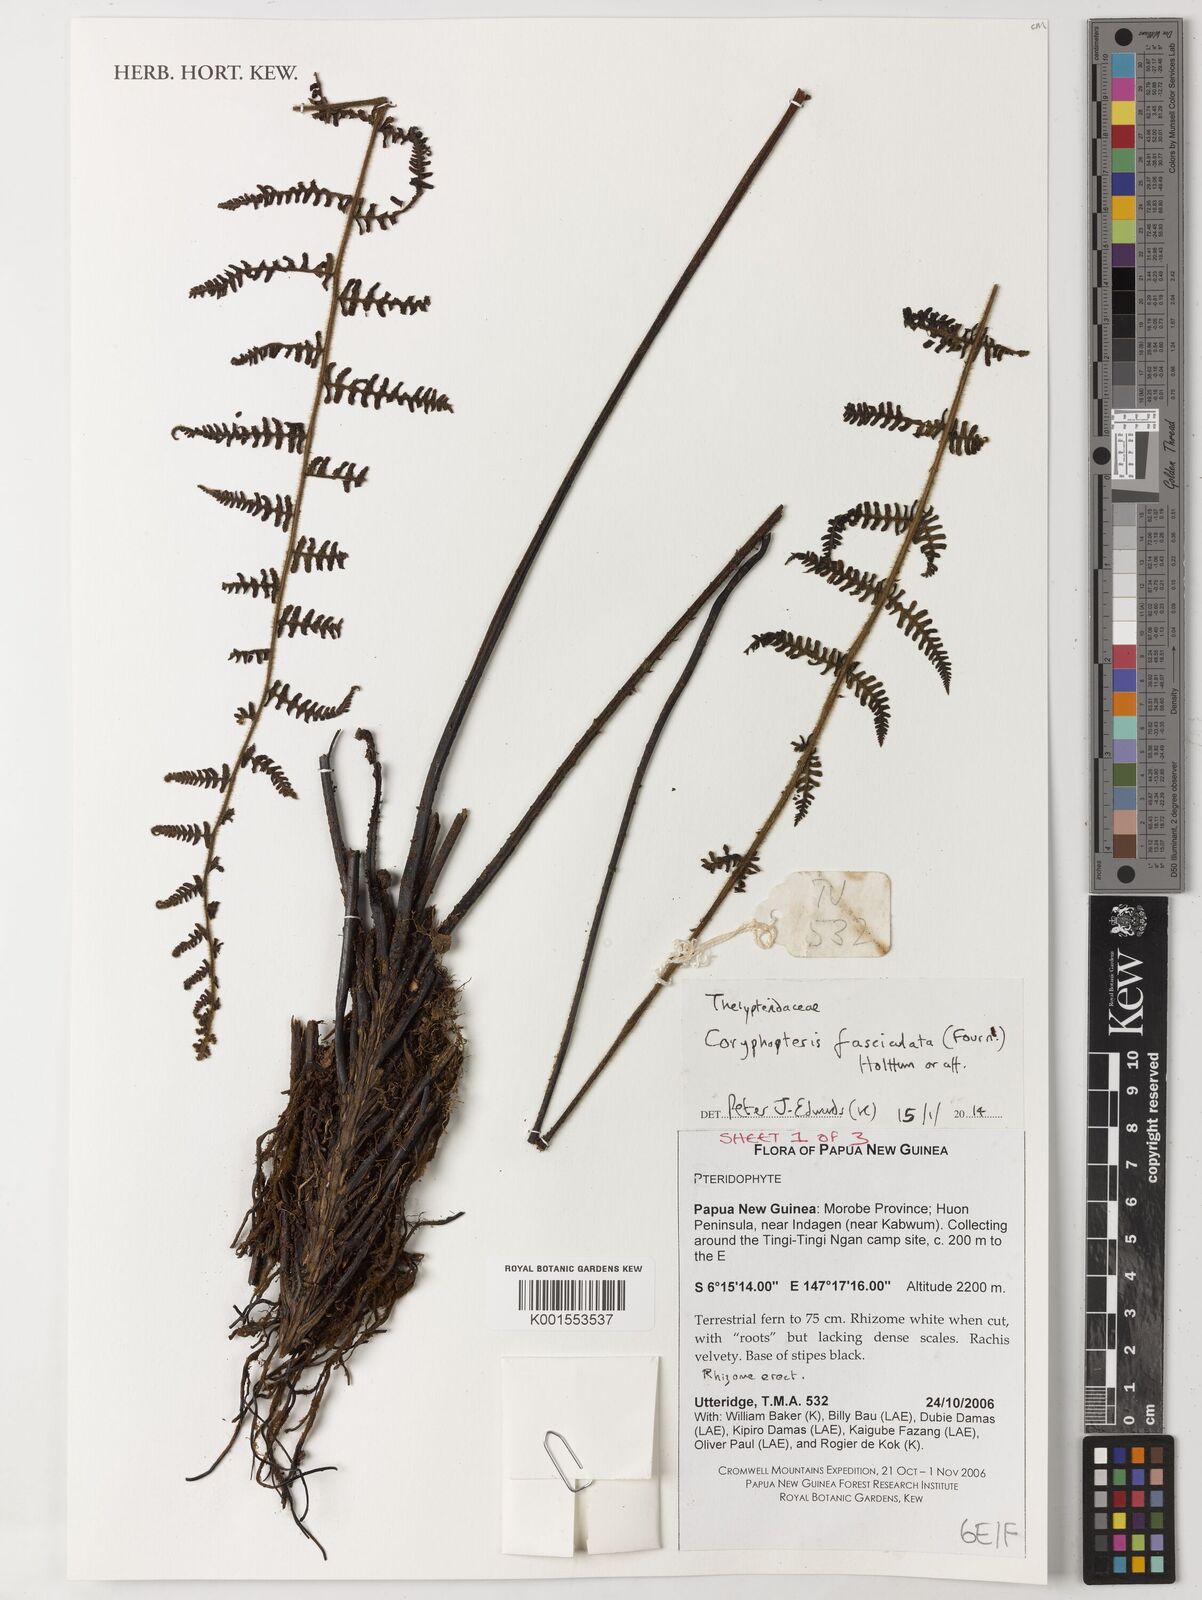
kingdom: Plantae
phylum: Tracheophyta
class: Polypodiopsida
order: Polypodiales
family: Thelypteridaceae
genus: Coryphopteris
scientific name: Coryphopteris fasciculata
